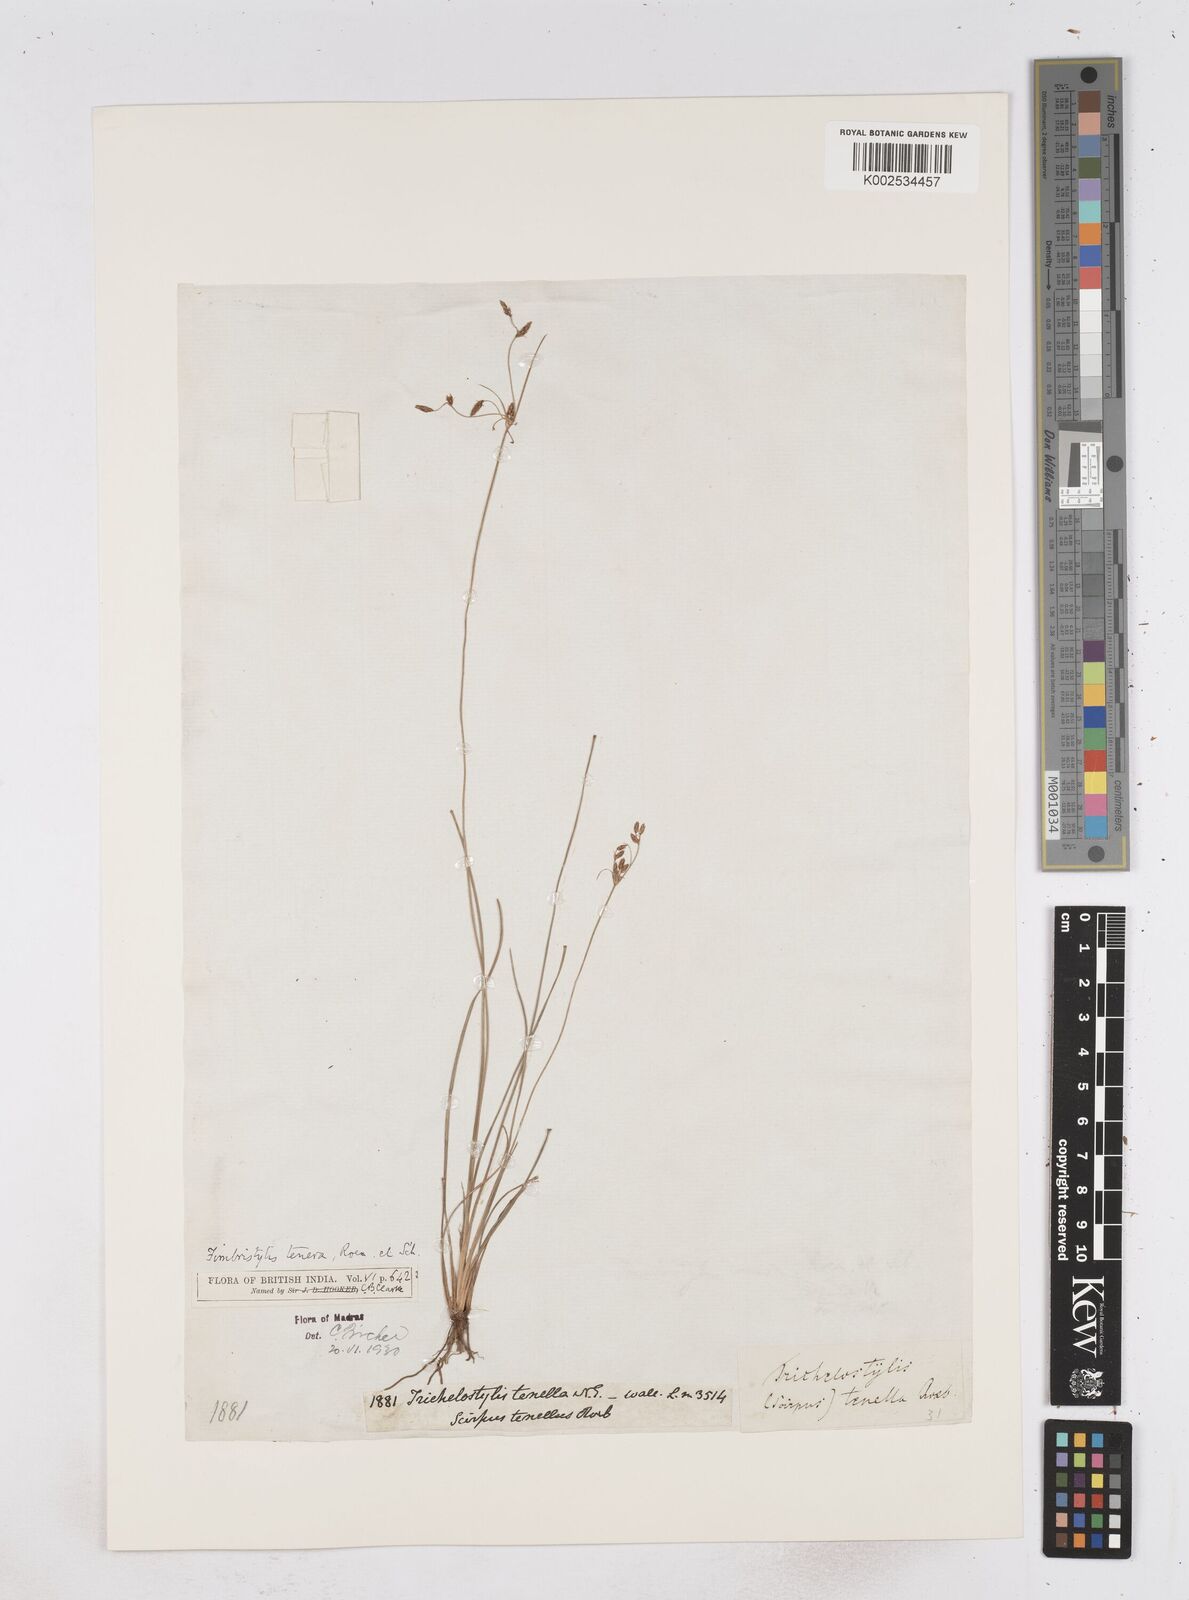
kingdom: Plantae
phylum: Tracheophyta
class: Liliopsida
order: Poales
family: Cyperaceae
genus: Fimbristylis
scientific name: Fimbristylis tenera
